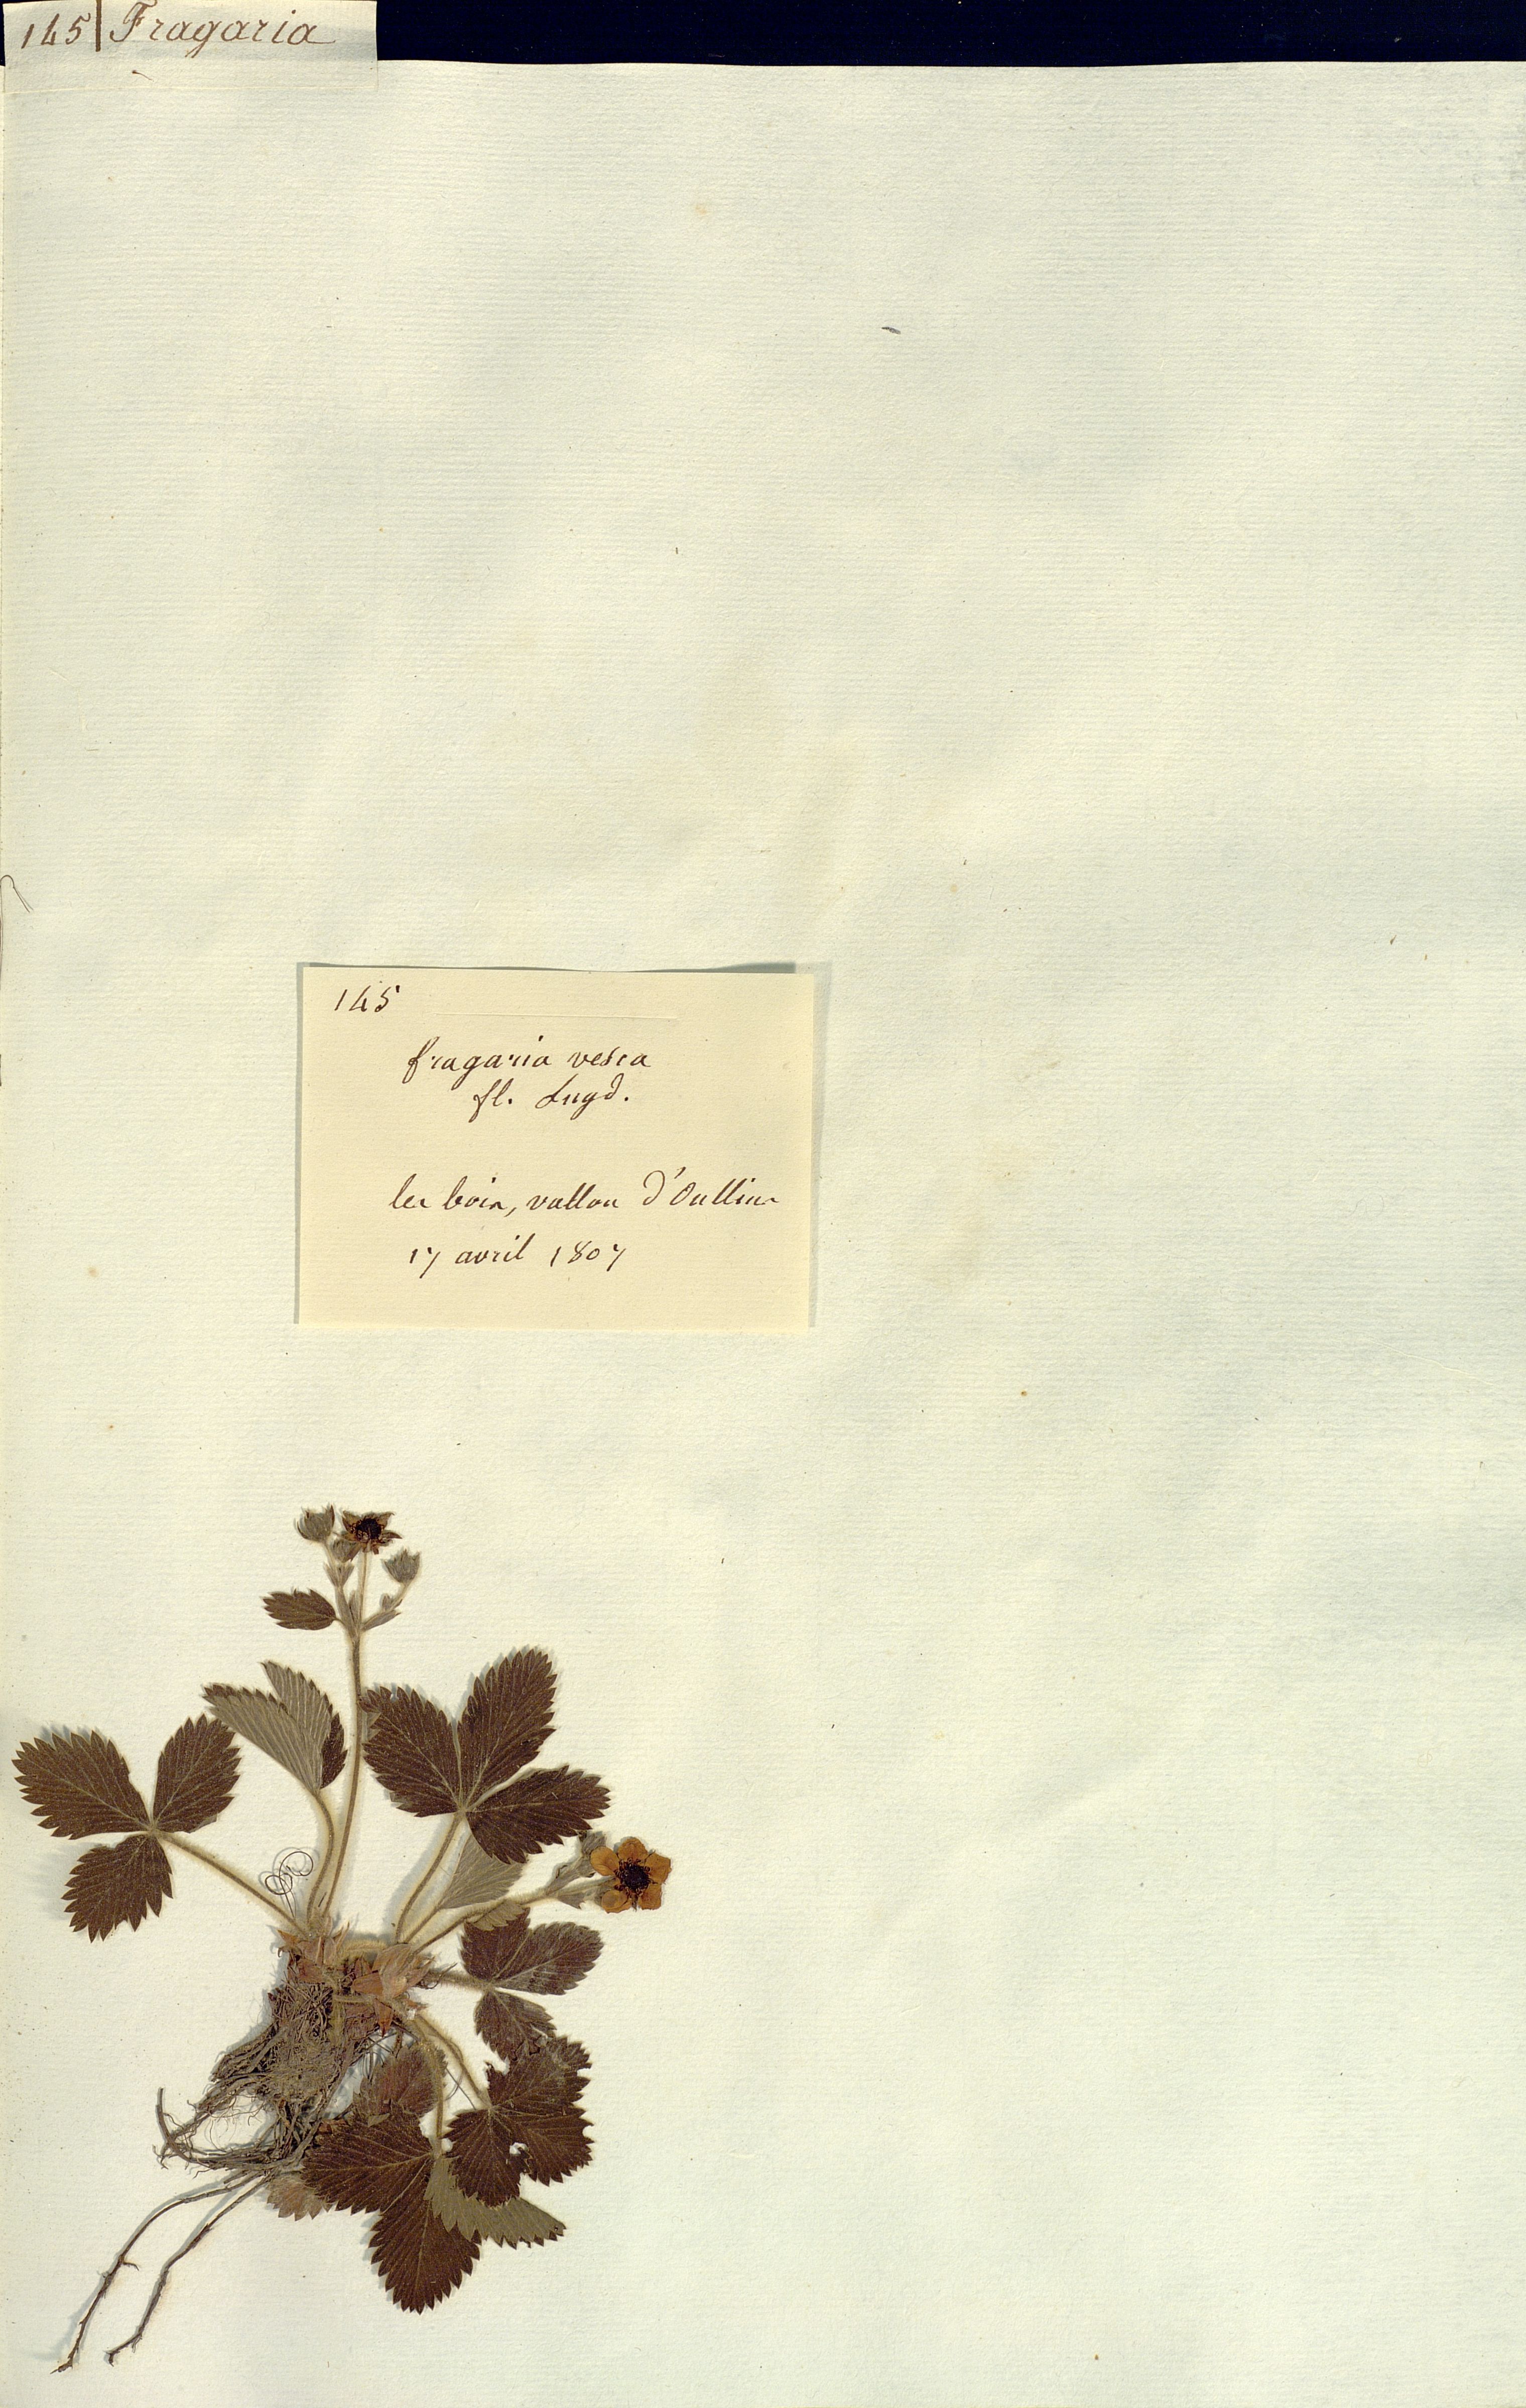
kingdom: Plantae
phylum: Tracheophyta
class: Magnoliopsida
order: Rosales
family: Rosaceae
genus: Fragaria
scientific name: Fragaria vesca
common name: Wild strawberry
